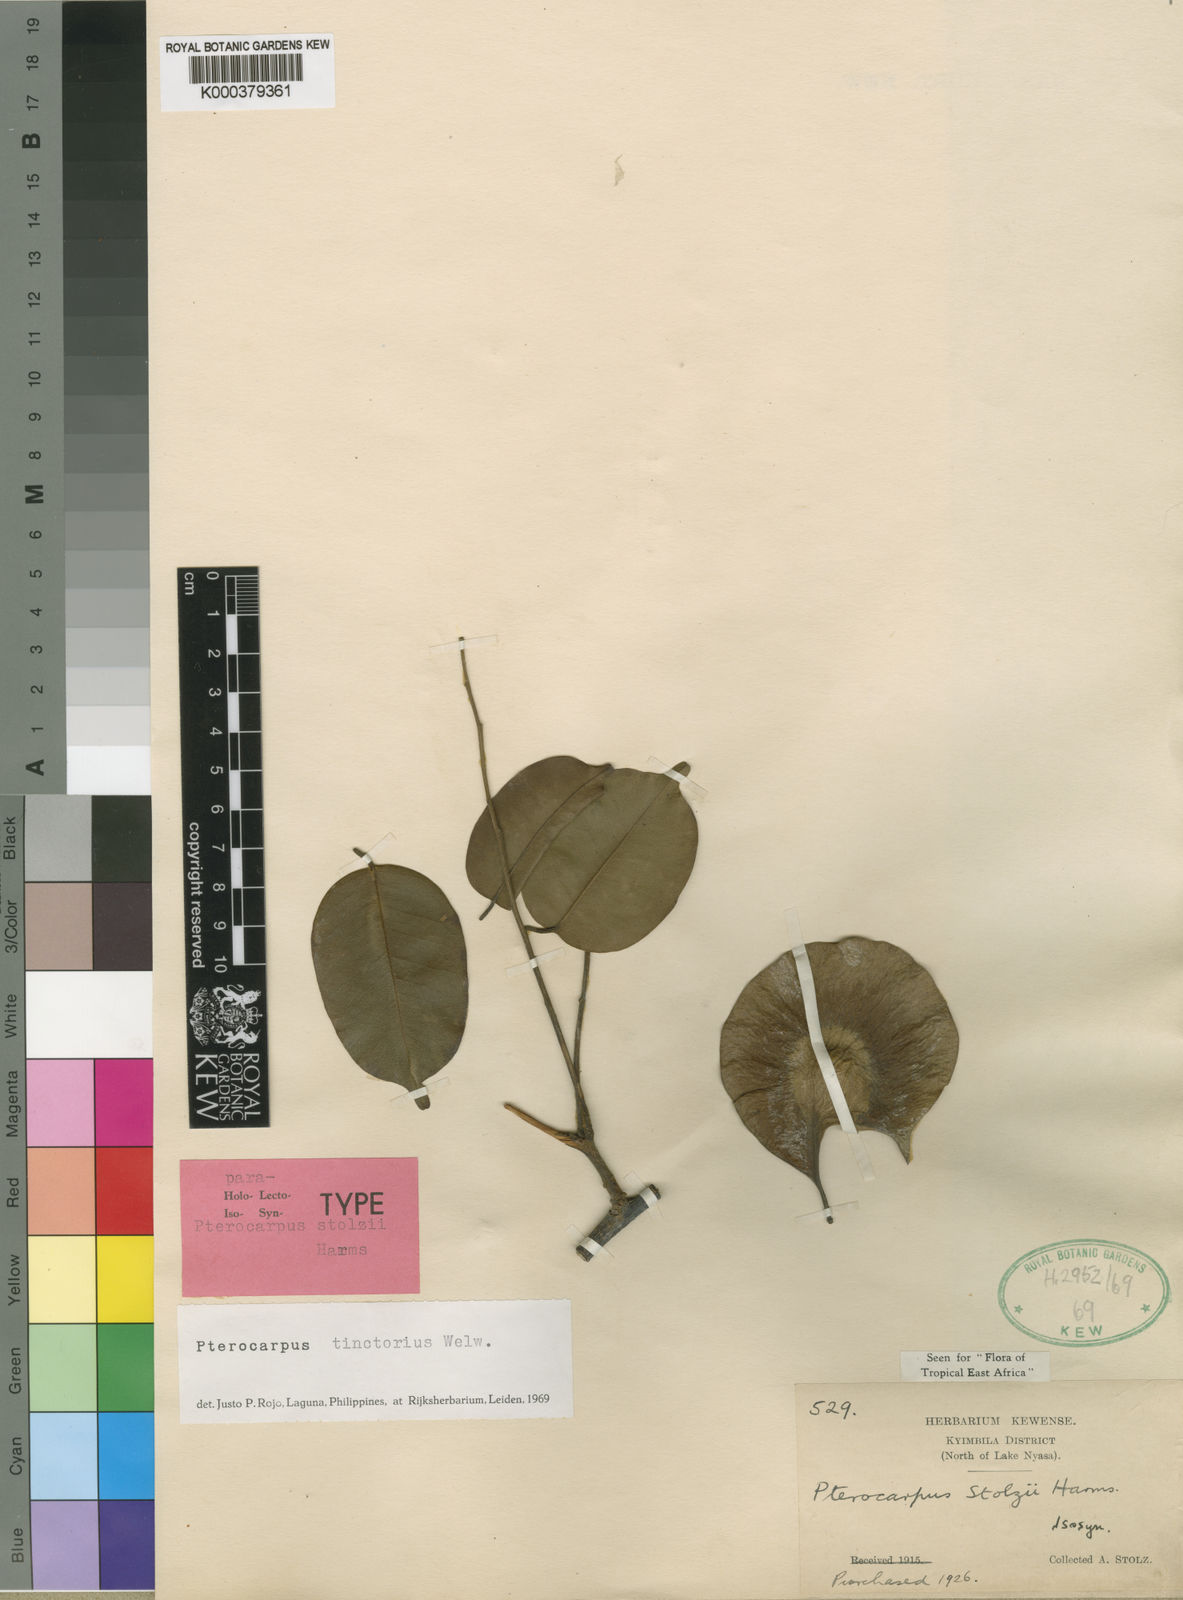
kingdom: Plantae
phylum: Tracheophyta
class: Magnoliopsida
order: Fabales
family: Fabaceae
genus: Pterocarpus
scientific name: Pterocarpus tinctorius
